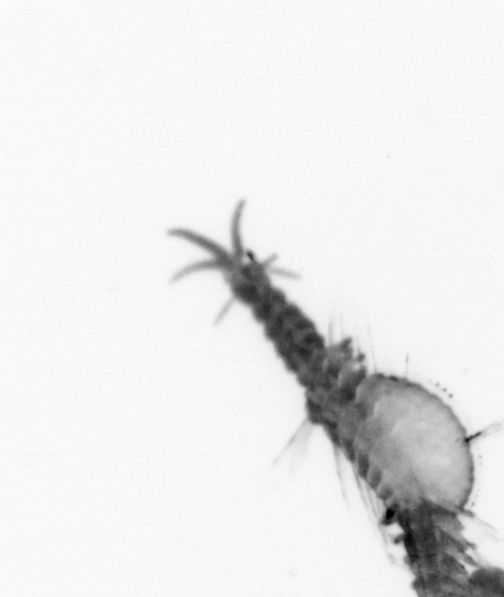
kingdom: Animalia
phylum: Annelida
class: Polychaeta
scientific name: Polychaeta
